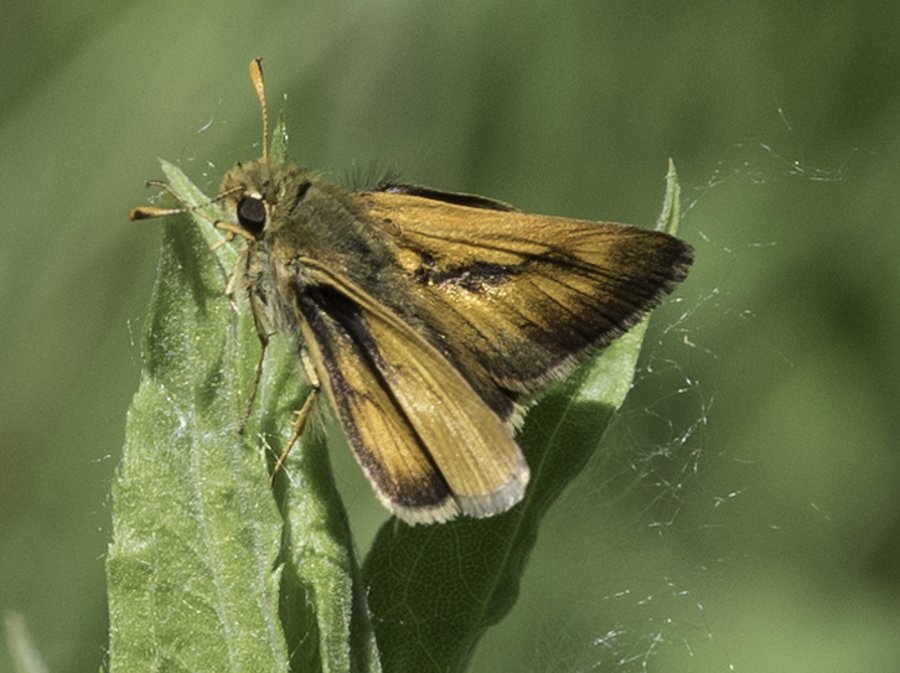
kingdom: Animalia
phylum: Arthropoda
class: Insecta
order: Lepidoptera
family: Hesperiidae
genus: Polites
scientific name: Polites
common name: Long Dash Skipper
